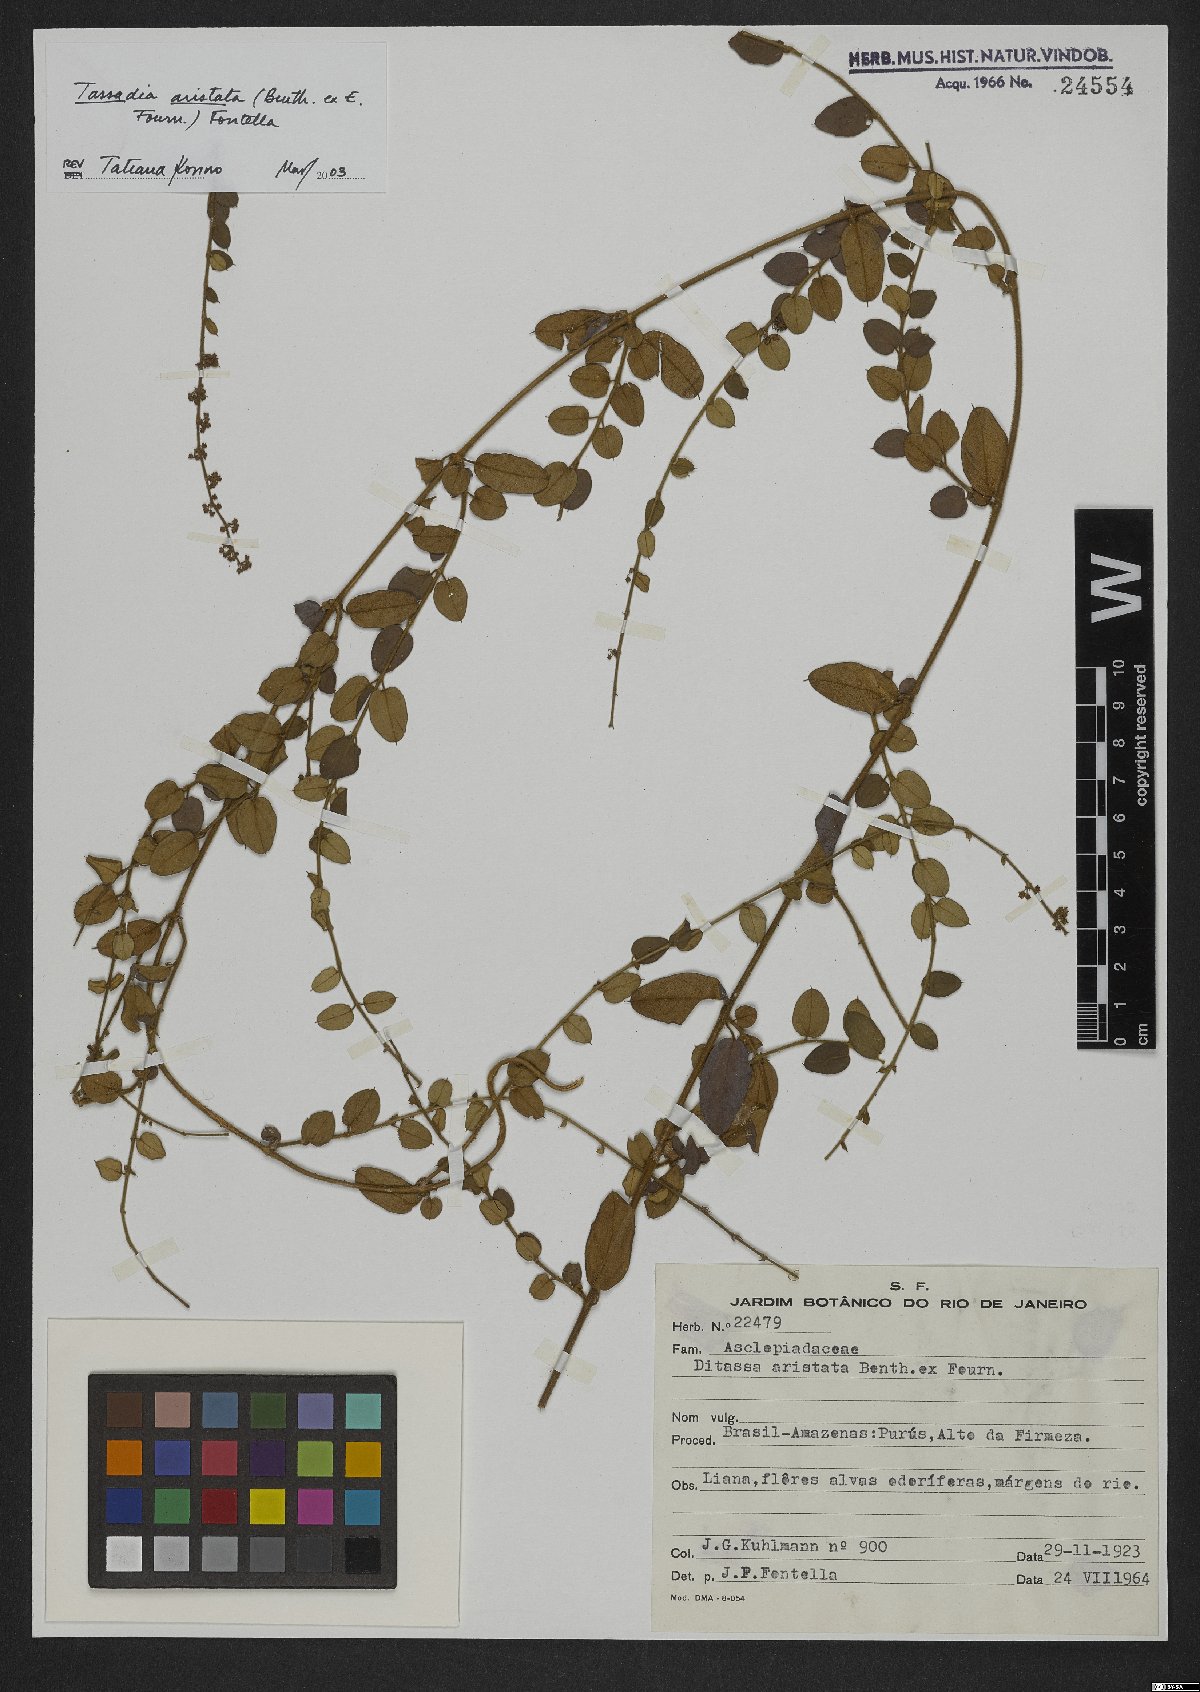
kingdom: Plantae
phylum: Tracheophyta
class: Magnoliopsida
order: Gentianales
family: Apocynaceae
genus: Tassadia
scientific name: Tassadia aristata
